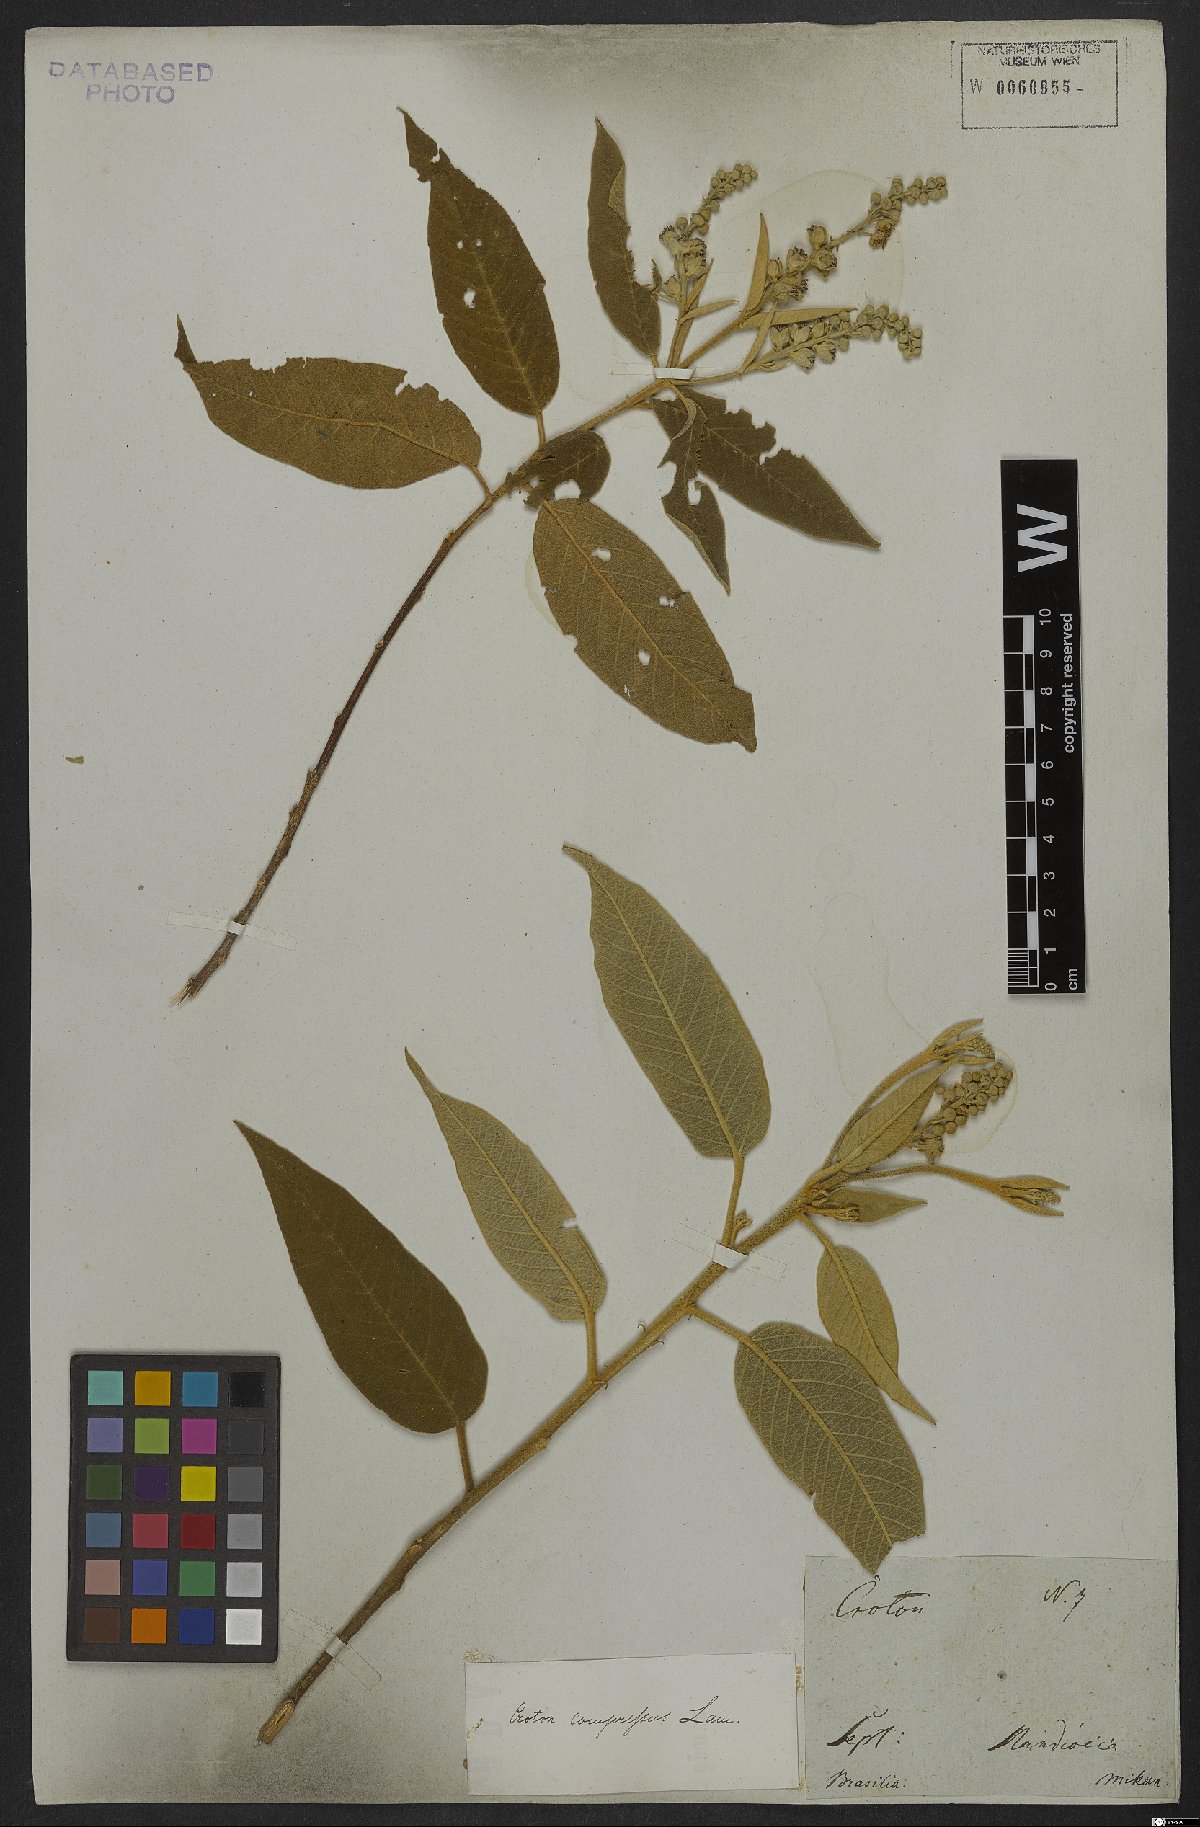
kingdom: Plantae
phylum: Tracheophyta
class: Magnoliopsida
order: Malpighiales
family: Euphorbiaceae
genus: Croton
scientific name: Croton compressus
